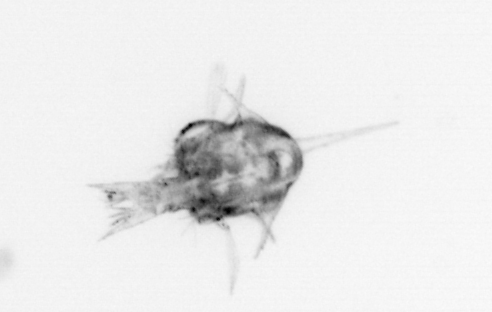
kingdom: Animalia
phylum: Arthropoda
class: Malacostraca
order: Decapoda
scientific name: Decapoda
